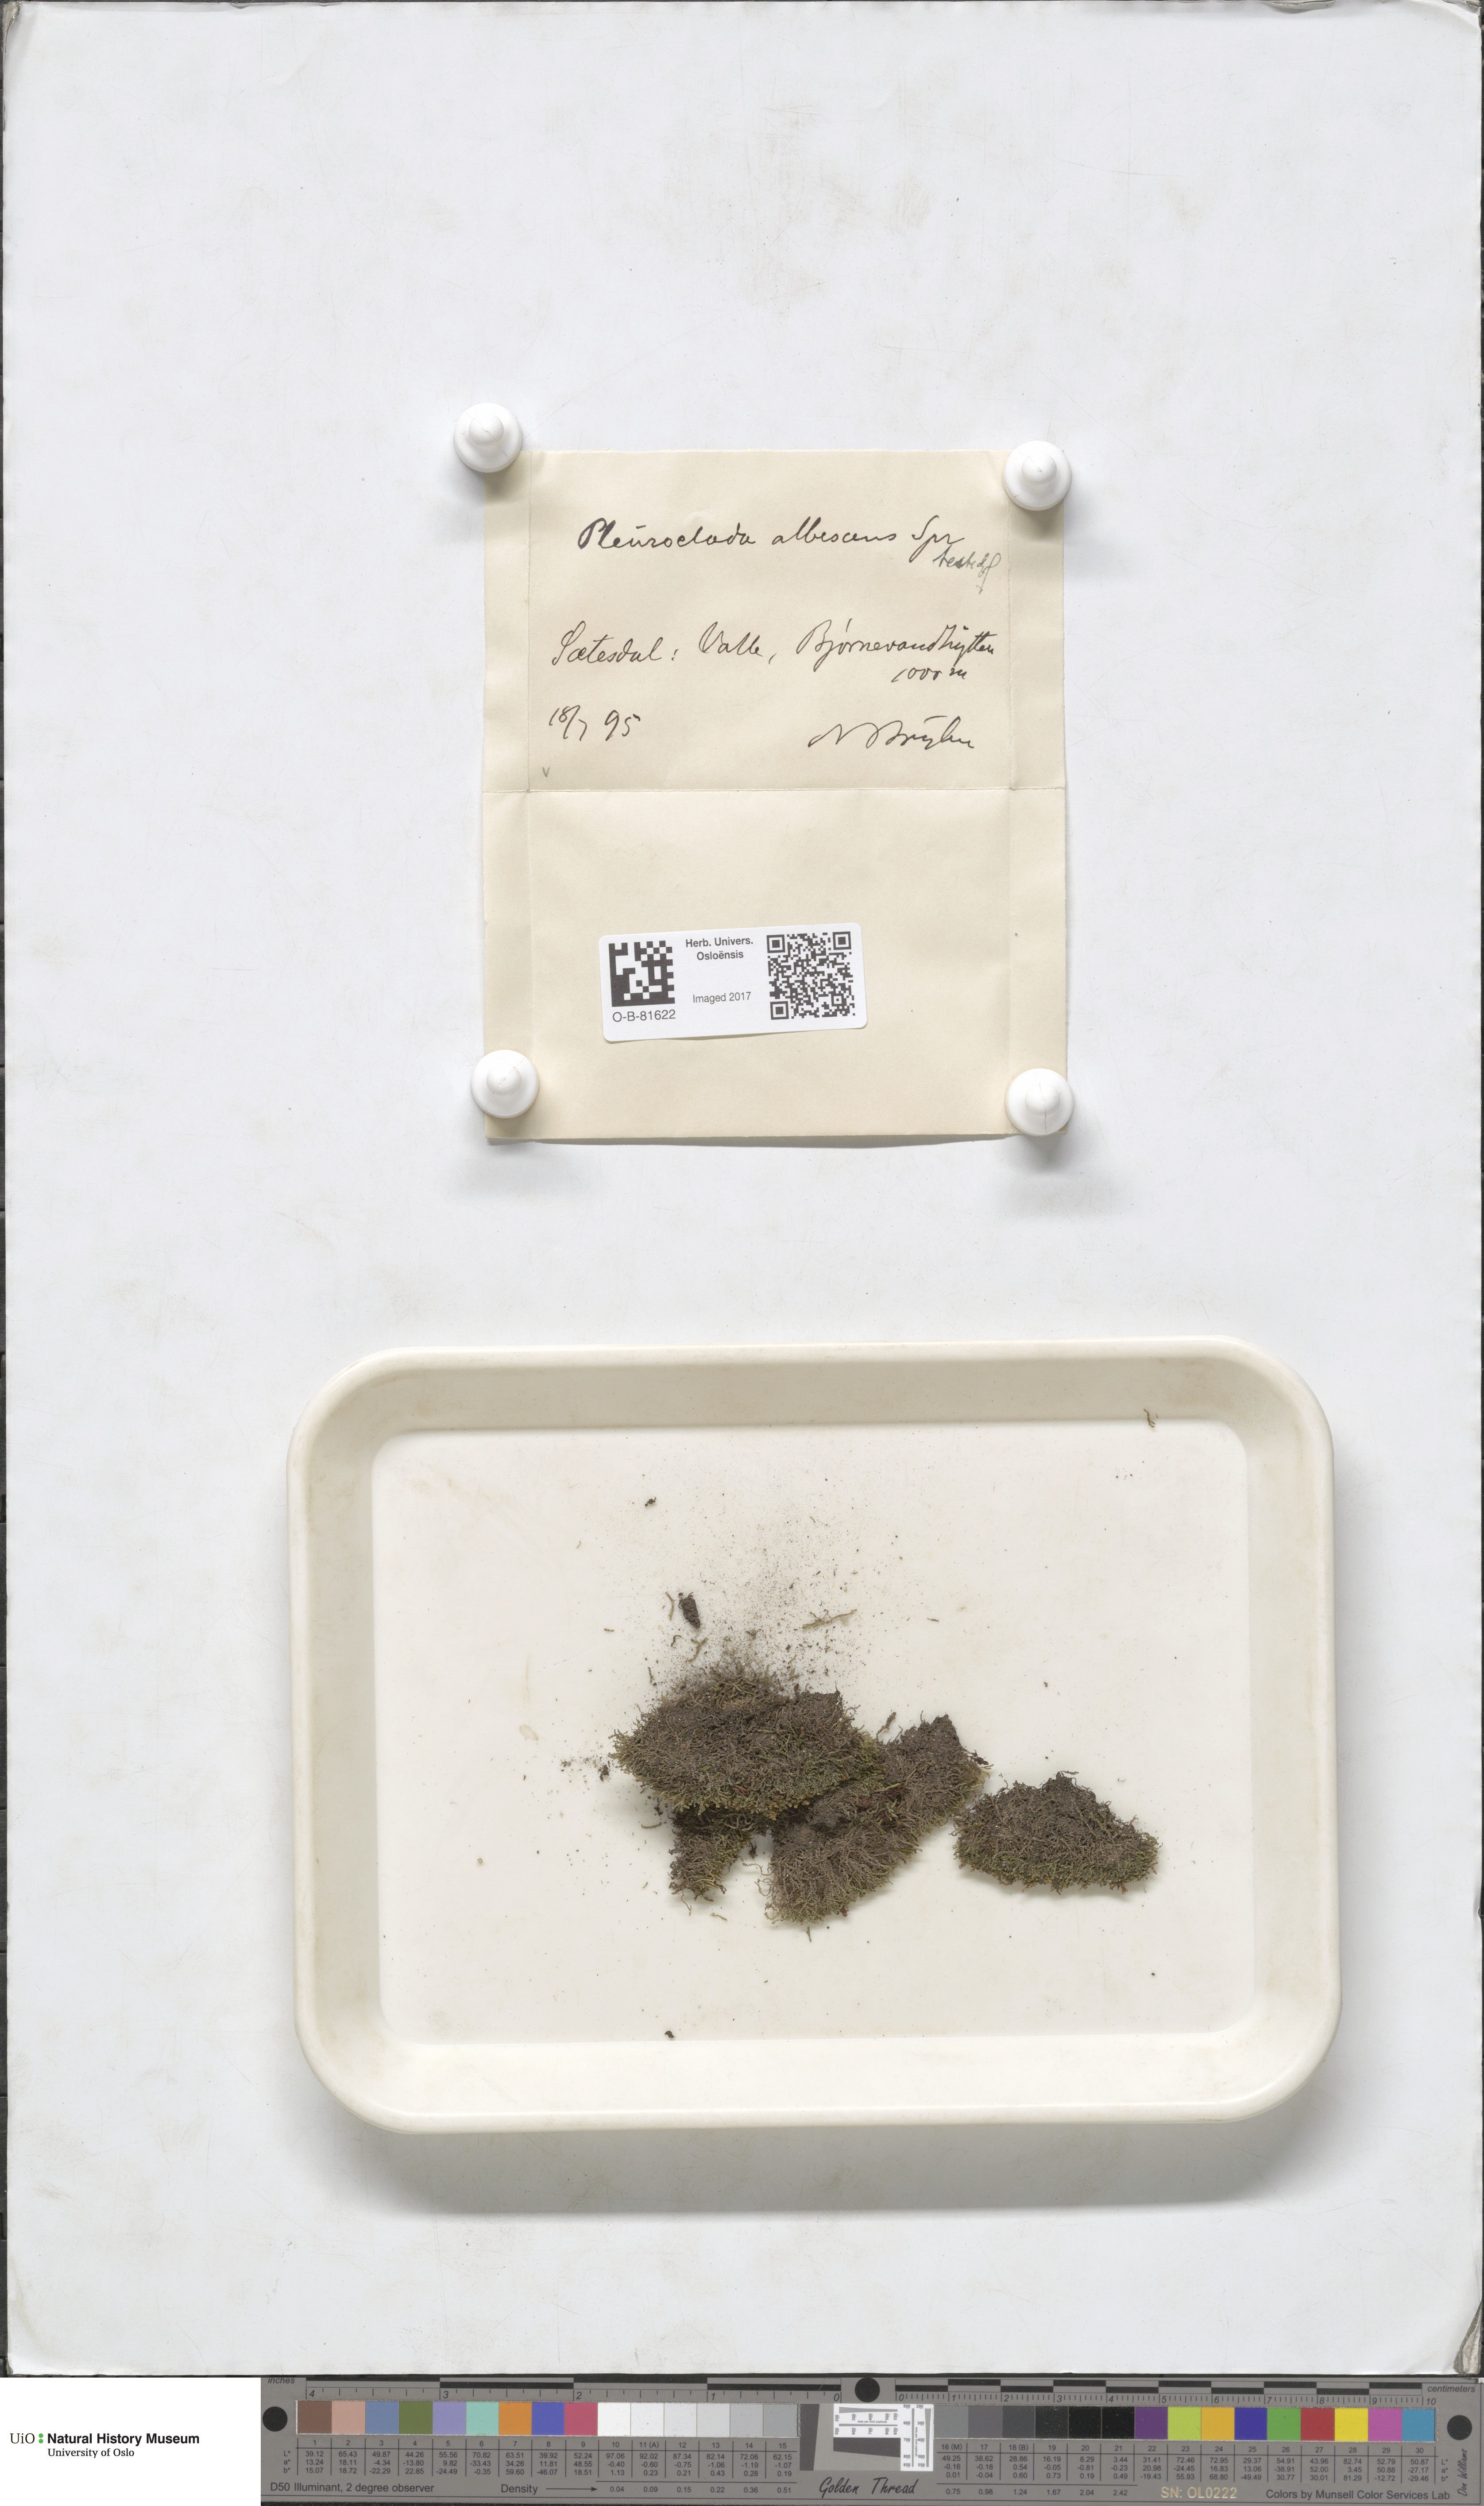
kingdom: Plantae
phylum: Marchantiophyta
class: Jungermanniopsida
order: Jungermanniales
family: Cephaloziaceae
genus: Fuscocephaloziopsis
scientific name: Fuscocephaloziopsis albescens
